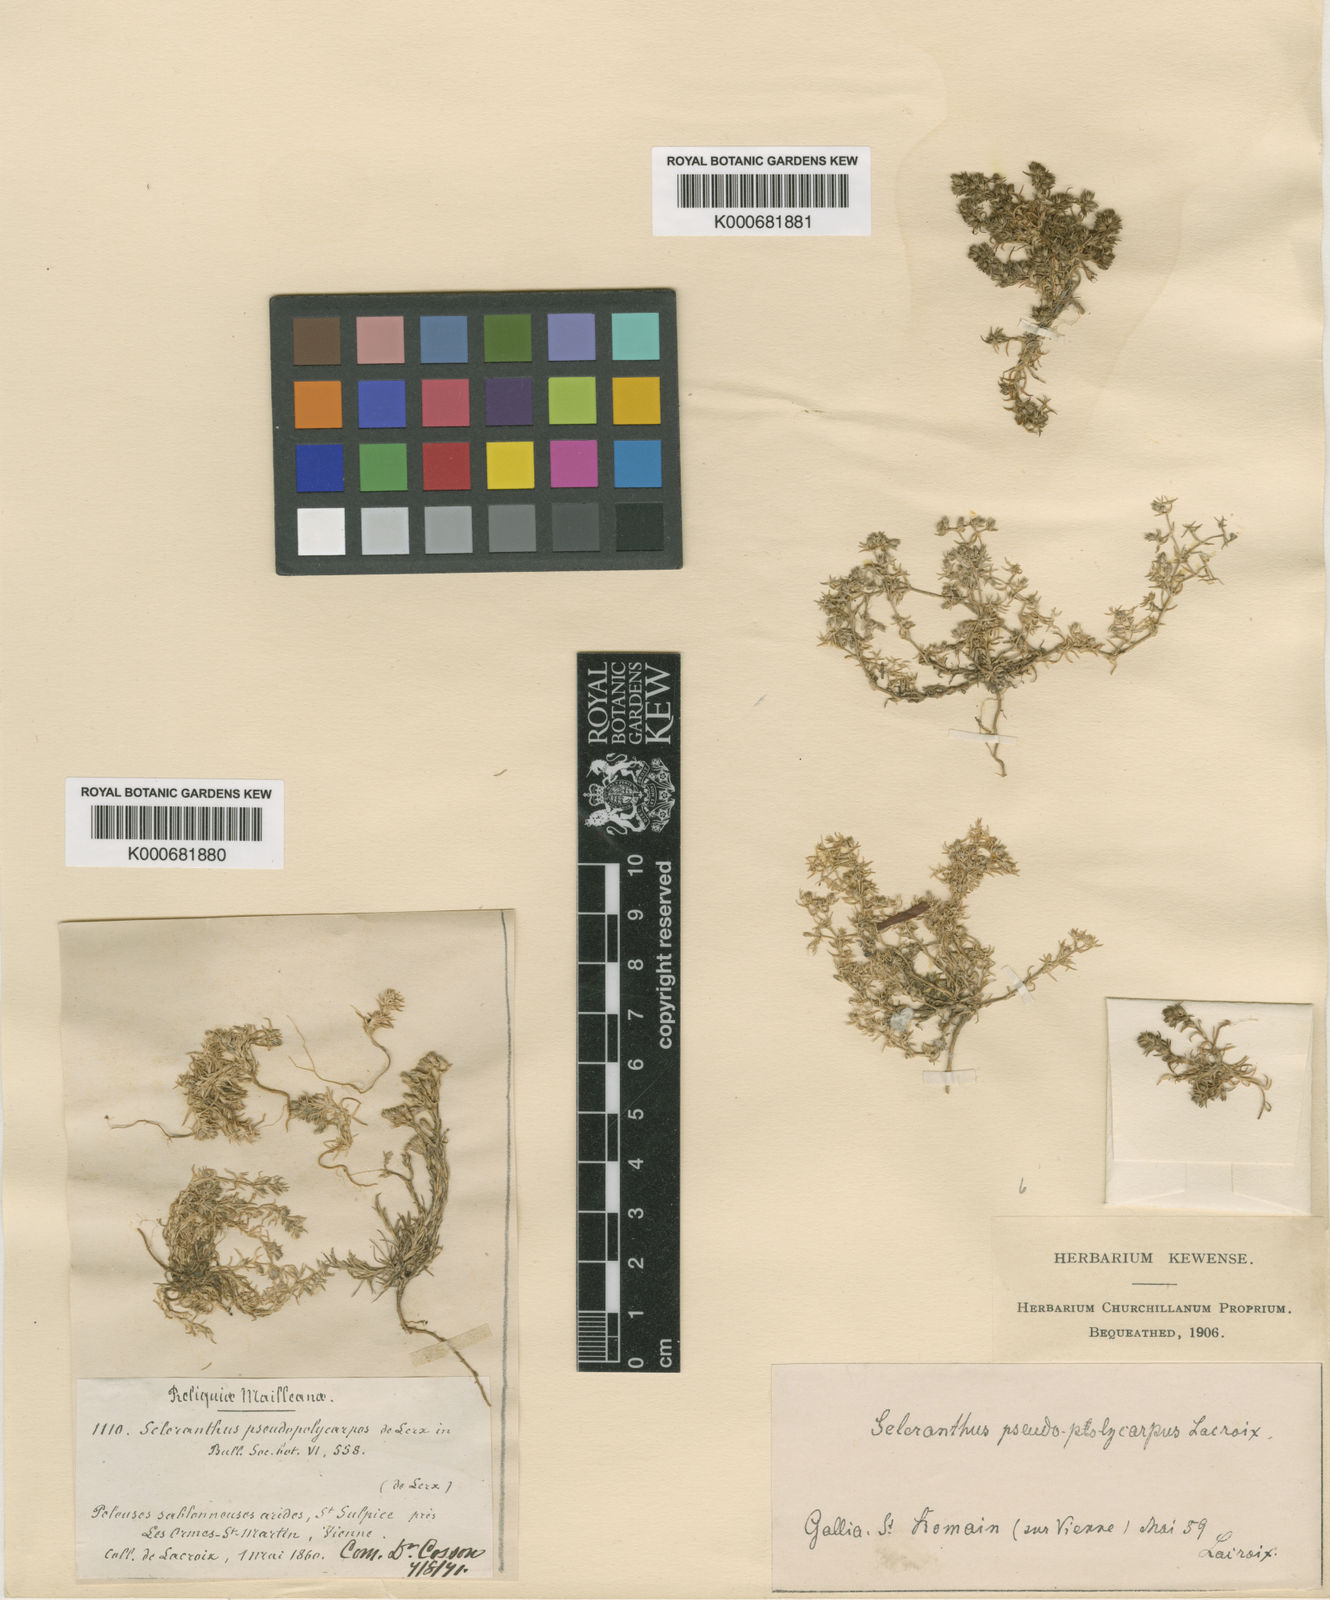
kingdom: Plantae
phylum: Tracheophyta
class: Magnoliopsida
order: Caryophyllales
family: Caryophyllaceae
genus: Scleranthus
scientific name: Scleranthus perennis
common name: Perennial knawel
